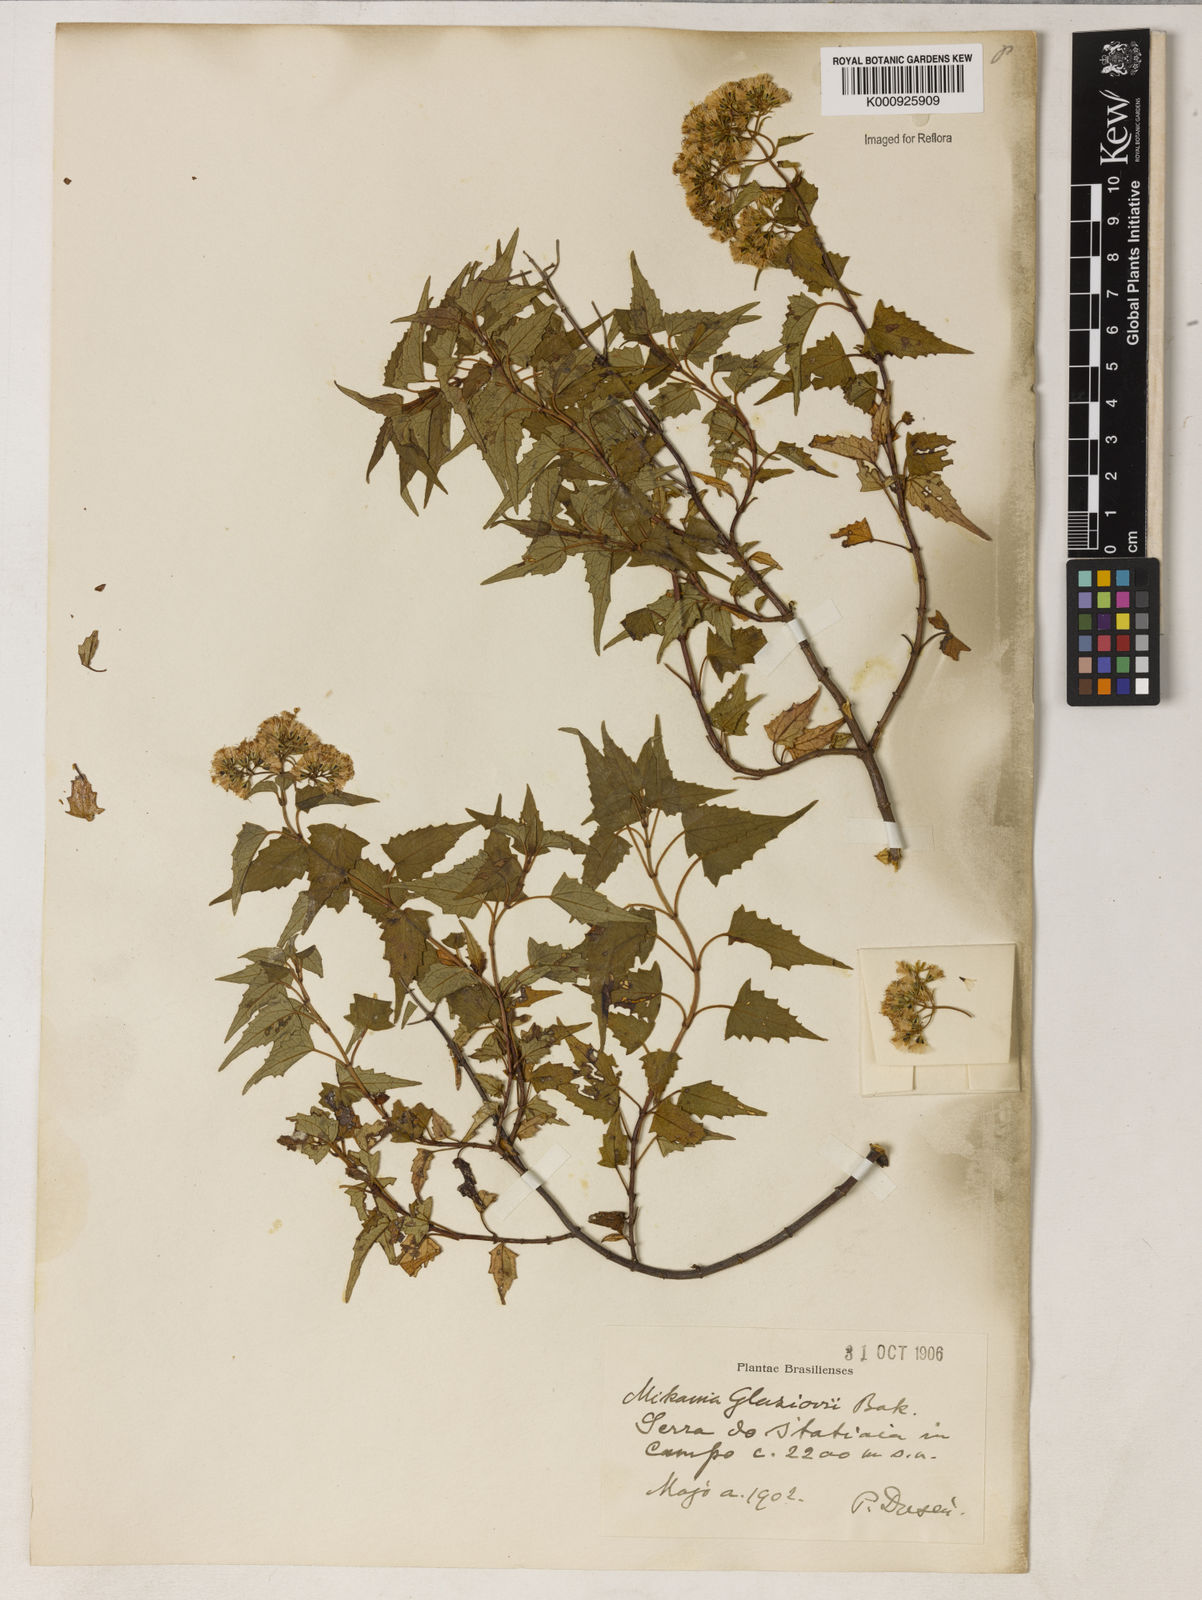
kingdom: Plantae
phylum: Tracheophyta
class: Magnoliopsida
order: Asterales
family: Asteraceae
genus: Mikania
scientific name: Mikania
